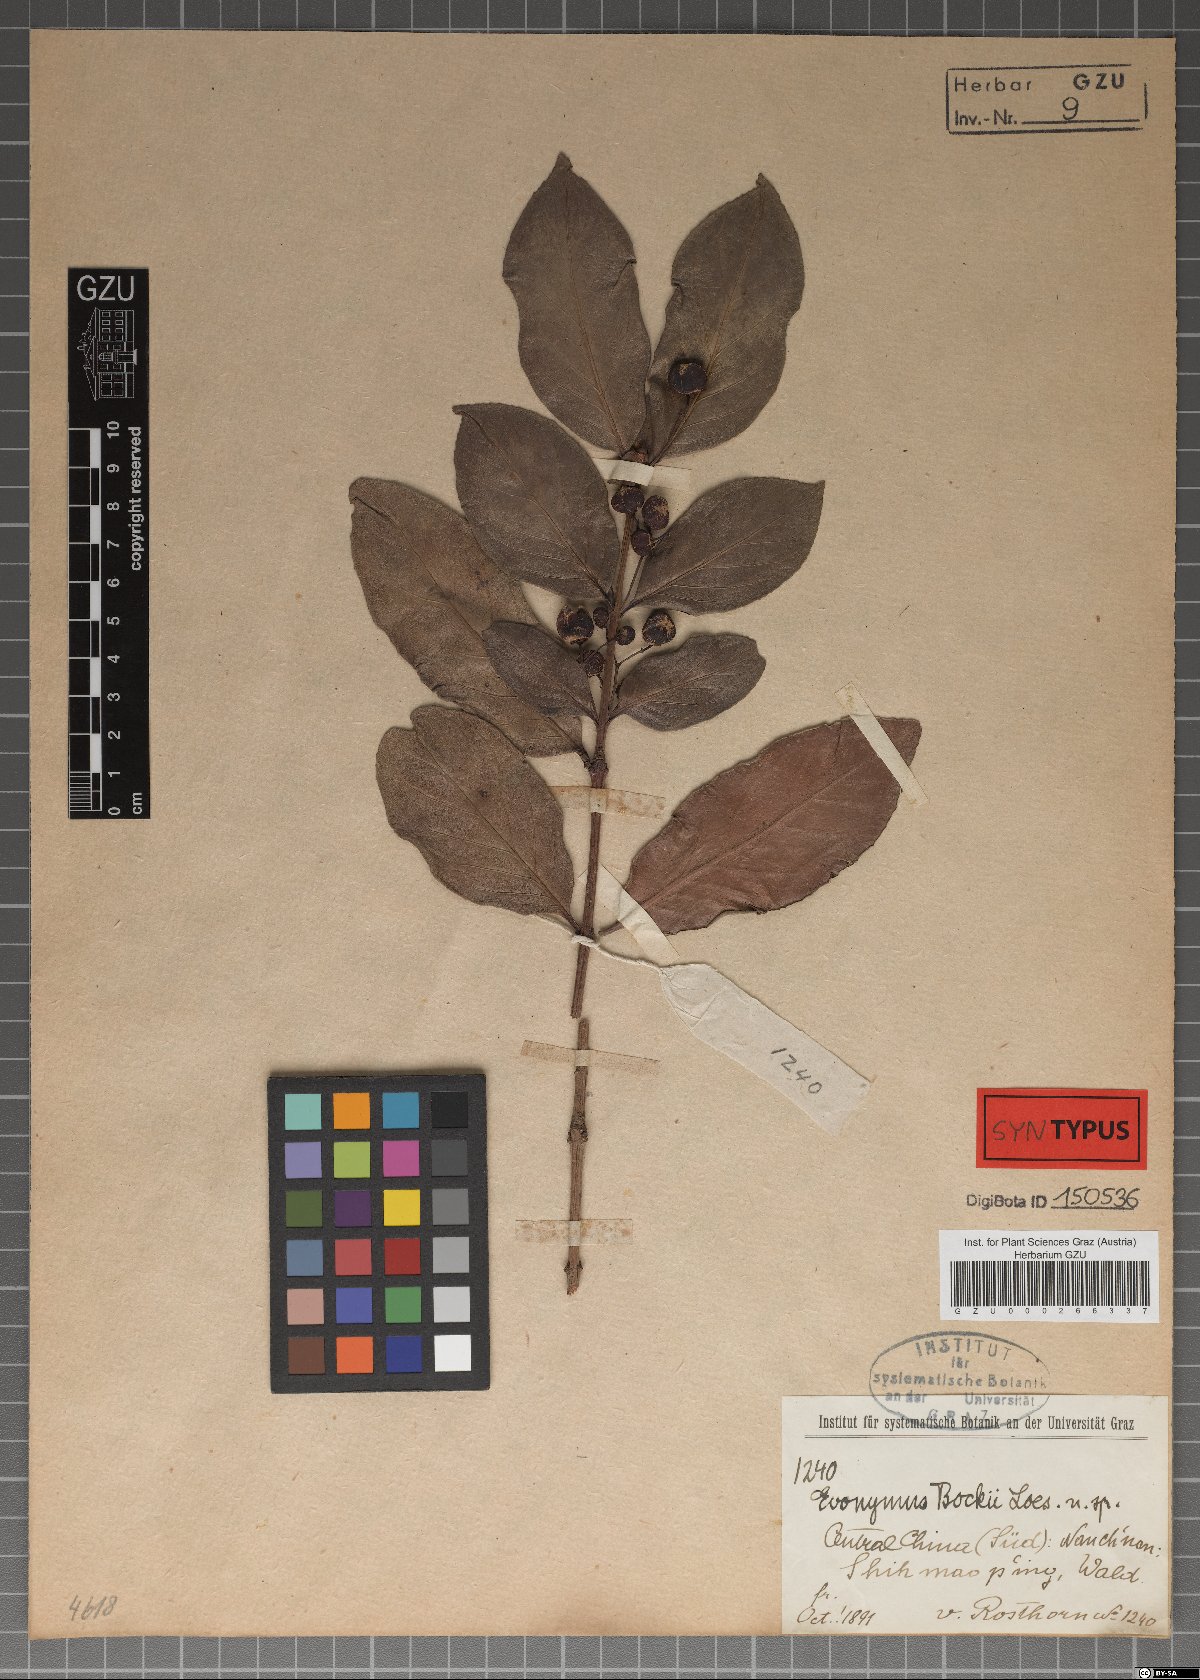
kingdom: Plantae
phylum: Tracheophyta
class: Magnoliopsida
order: Celastrales
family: Celastraceae
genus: Euonymus
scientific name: Euonymus bockii
